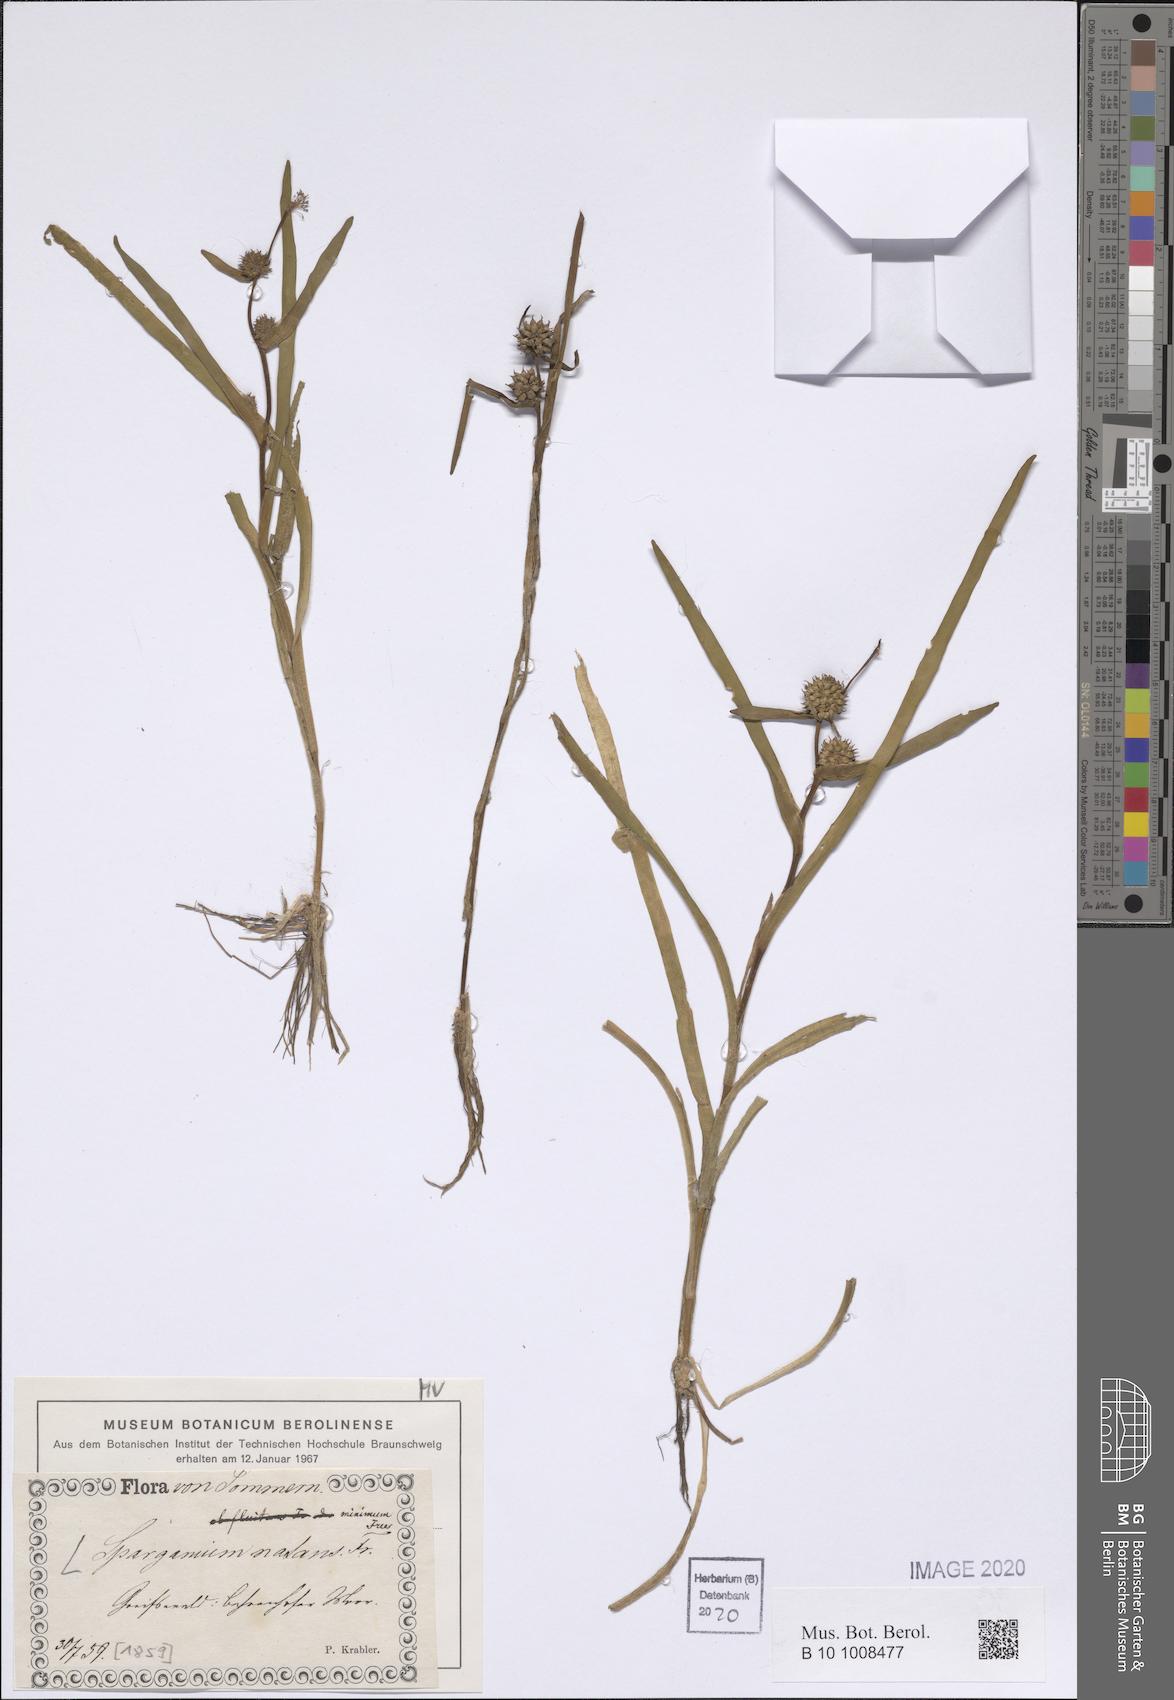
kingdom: Plantae
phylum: Tracheophyta
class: Liliopsida
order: Poales
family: Typhaceae
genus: Sparganium
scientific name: Sparganium natans
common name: Least bur-reed
